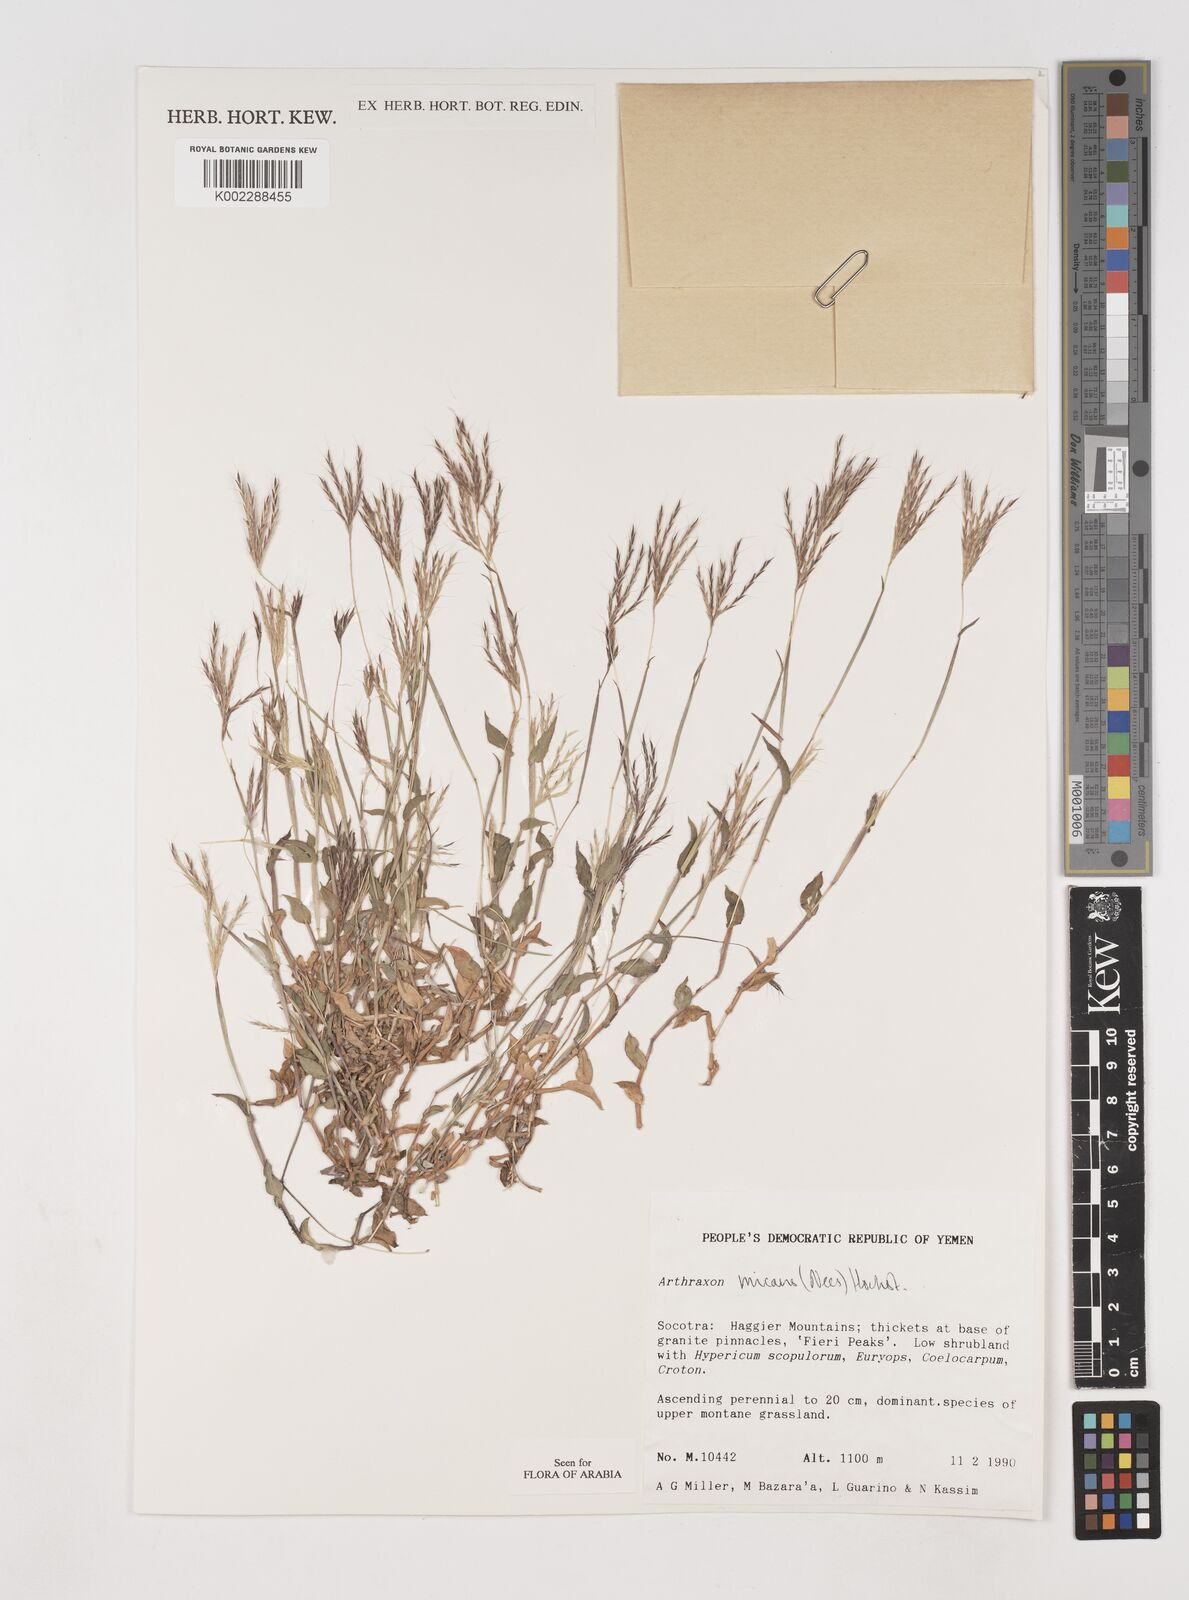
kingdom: Plantae
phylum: Tracheophyta
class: Liliopsida
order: Poales
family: Poaceae
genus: Arthraxon
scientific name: Arthraxon hispidus
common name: Small carpgrass
